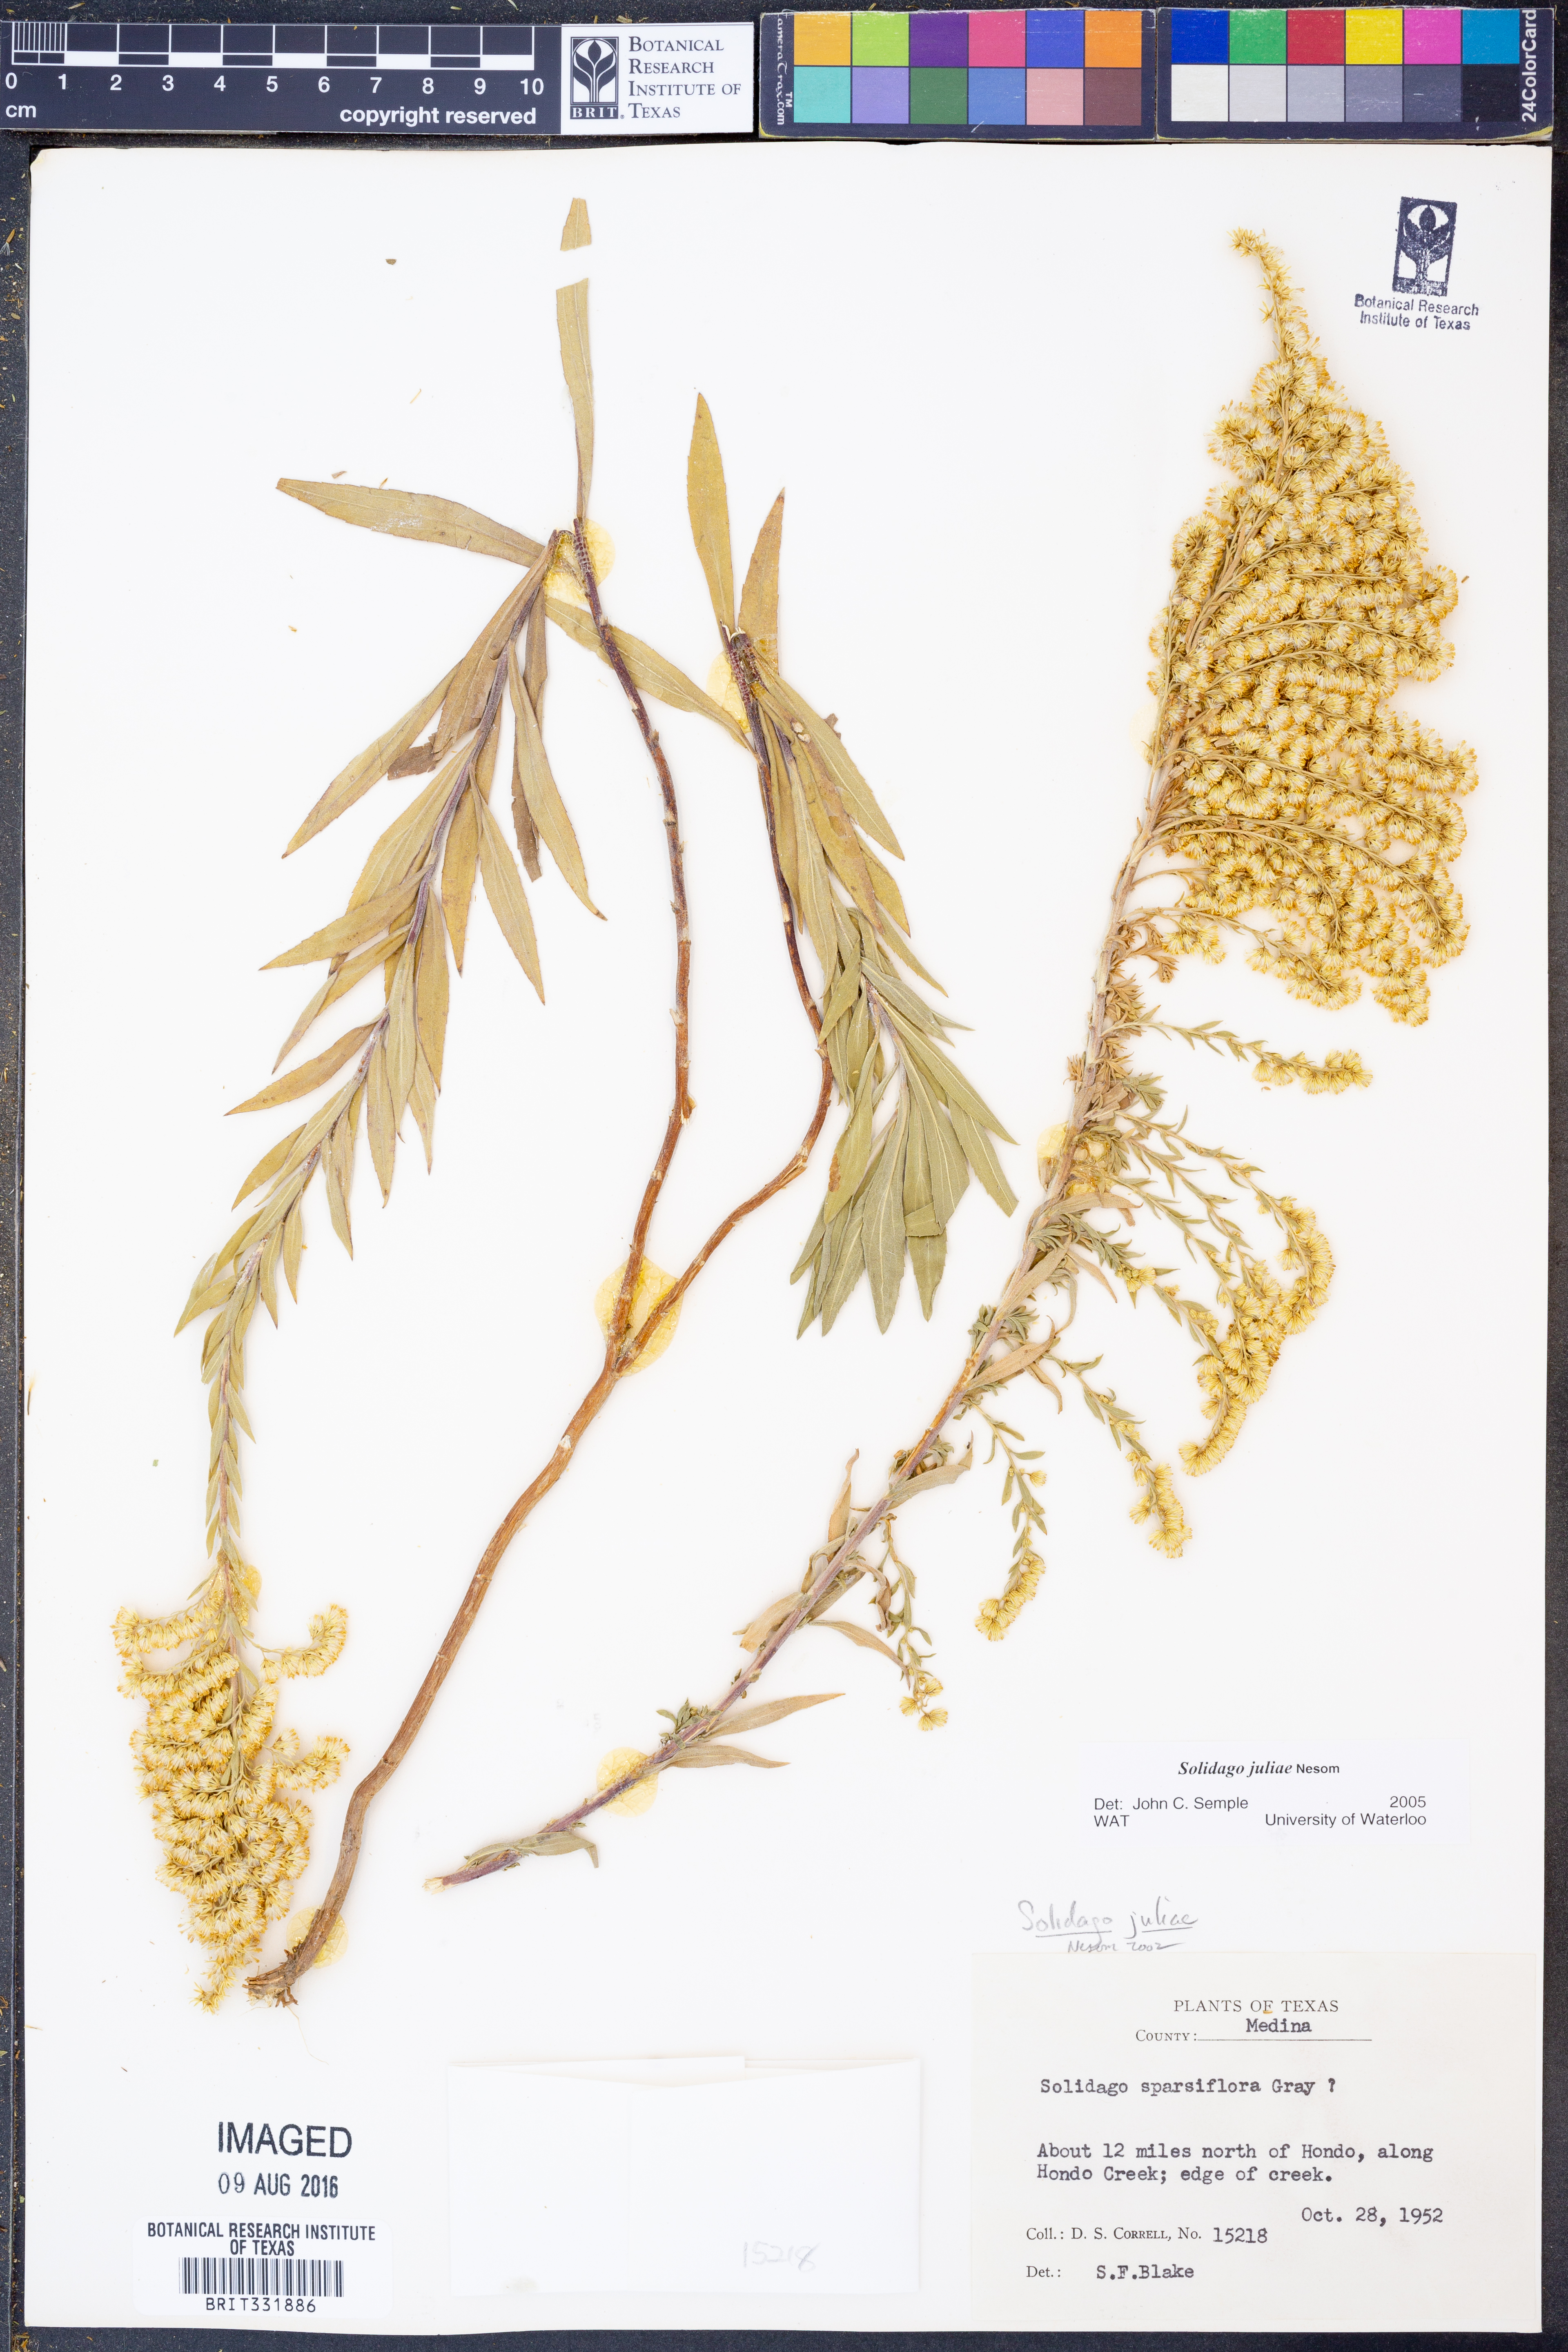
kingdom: Plantae
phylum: Tracheophyta
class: Magnoliopsida
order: Asterales
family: Asteraceae
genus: Solidago
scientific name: Solidago juliae
